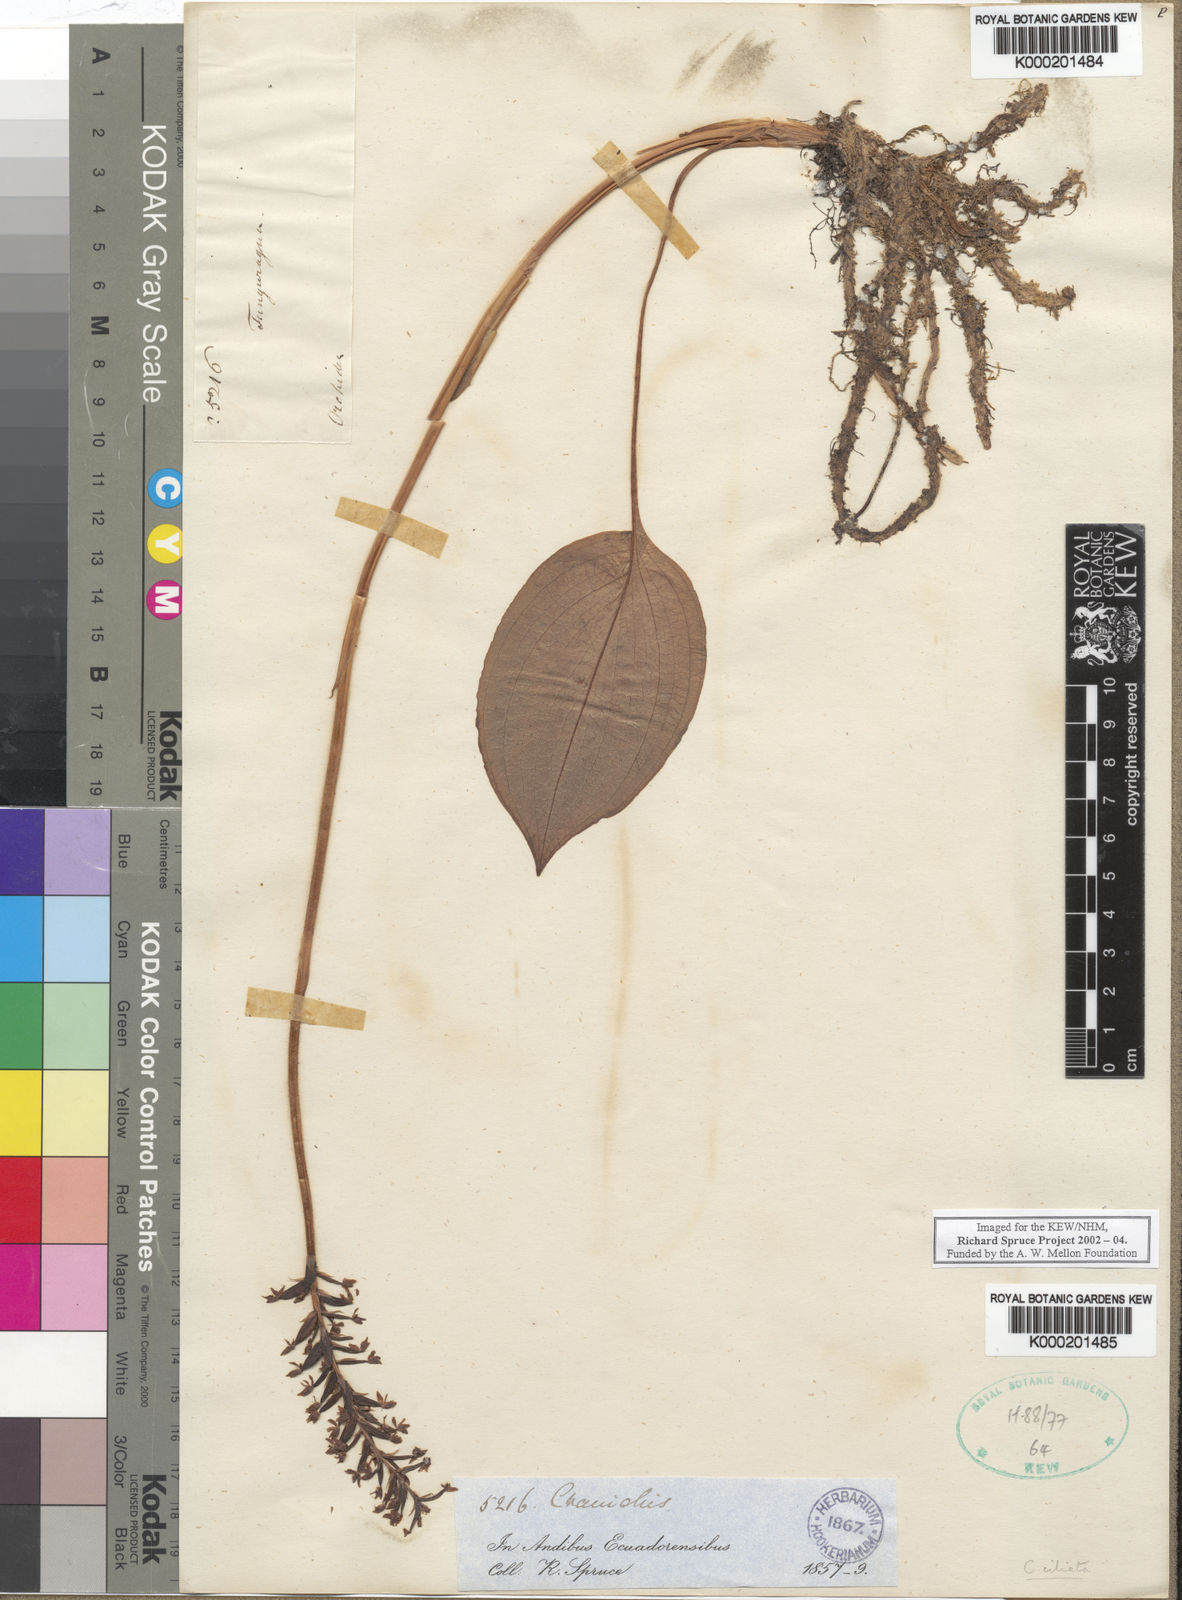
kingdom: Plantae
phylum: Tracheophyta
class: Liliopsida
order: Asparagales
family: Orchidaceae
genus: Cranichis
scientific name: Cranichis ciliata
